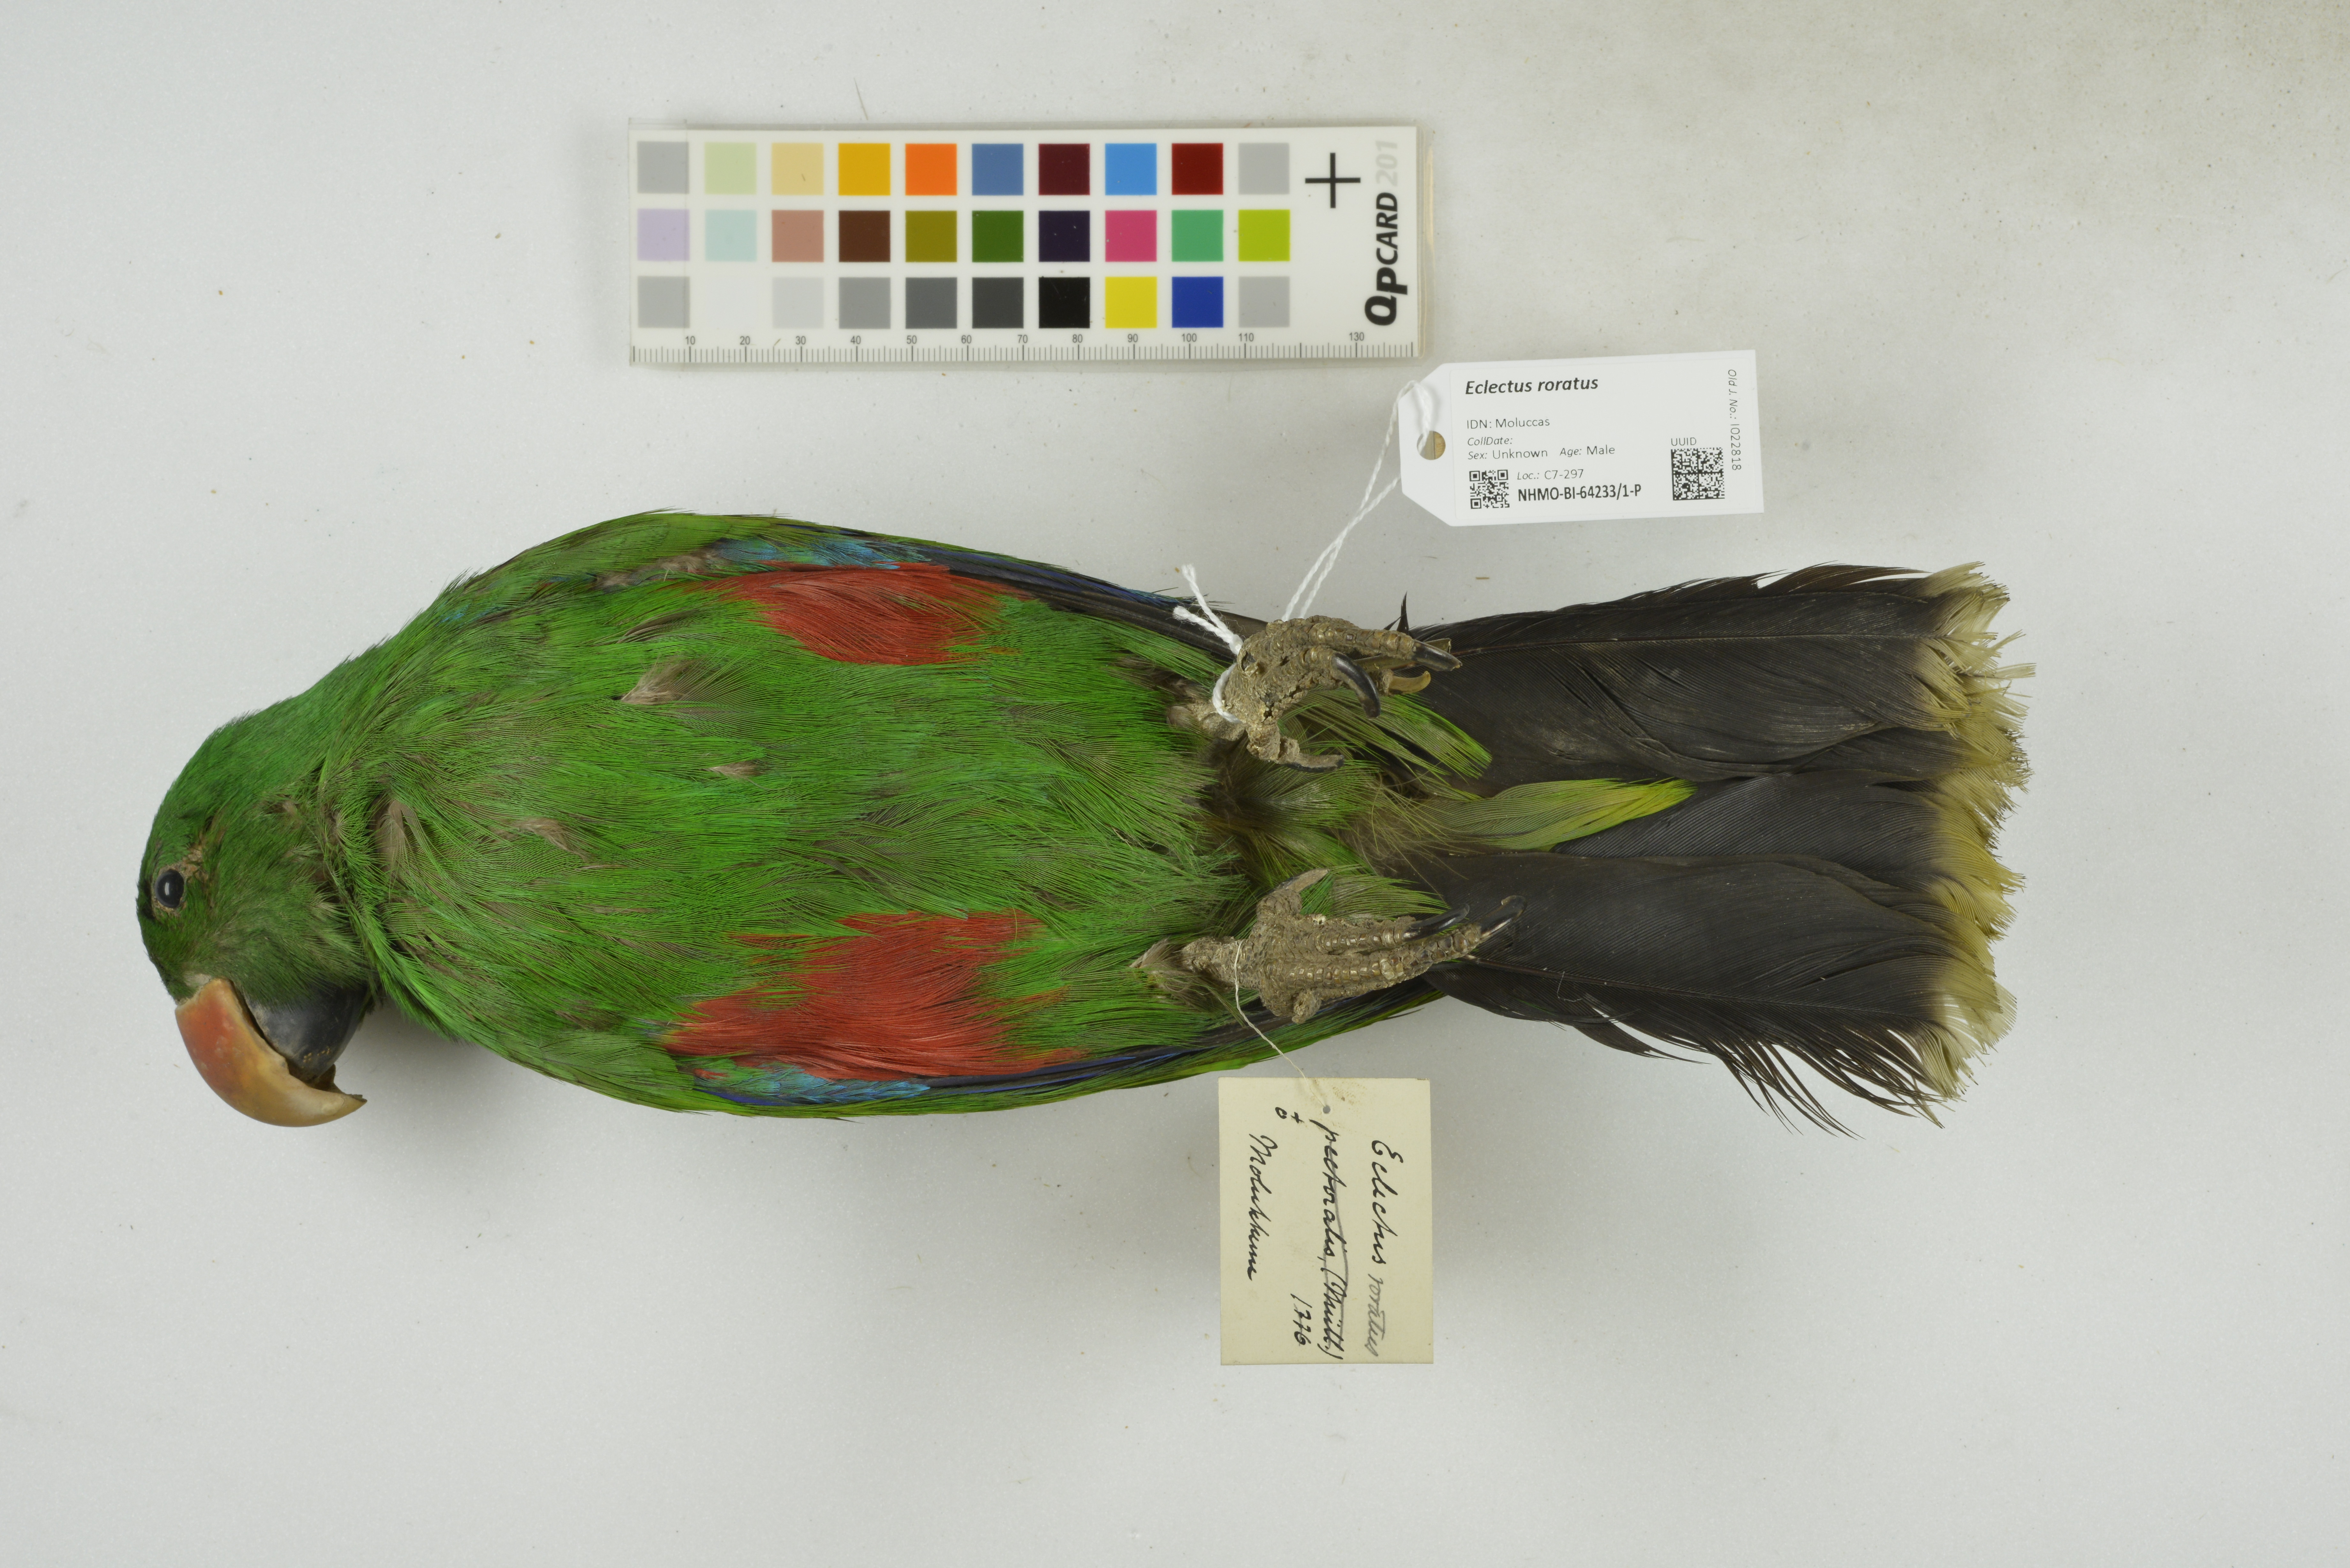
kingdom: Animalia
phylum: Chordata
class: Aves
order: Psittaciformes
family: Psittacidae
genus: Eclectus
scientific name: Eclectus roratus
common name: Eclectus parrot
